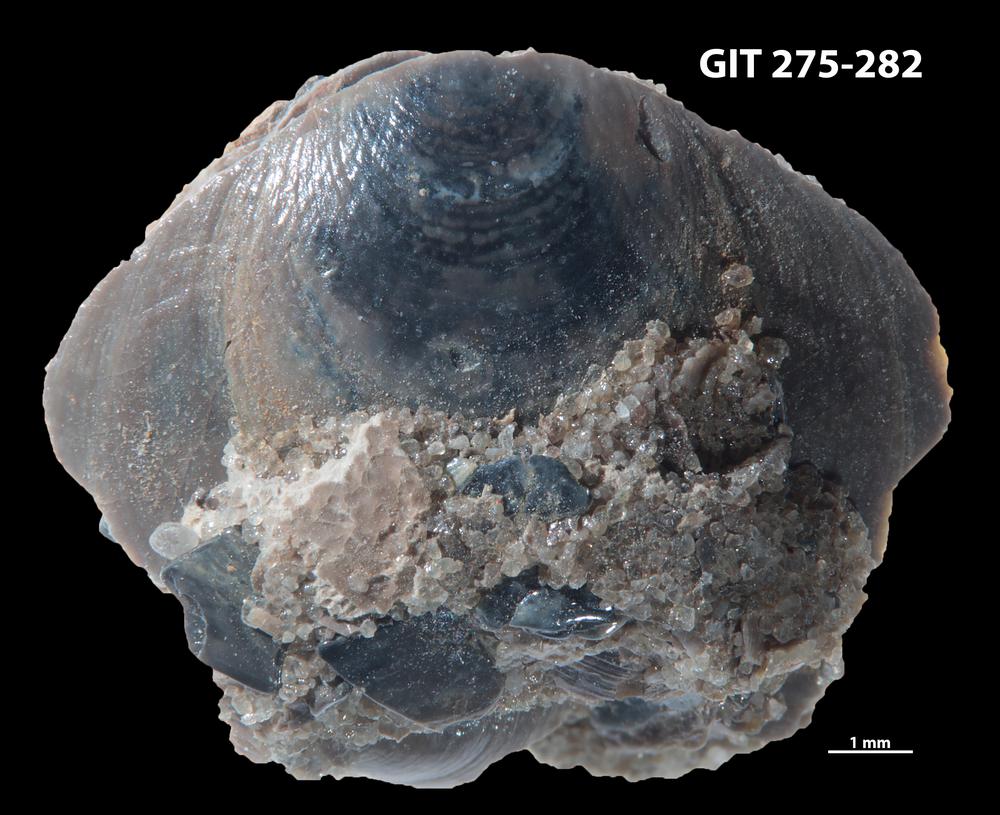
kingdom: Animalia
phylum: Brachiopoda
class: Lingulata
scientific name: Lingulata
